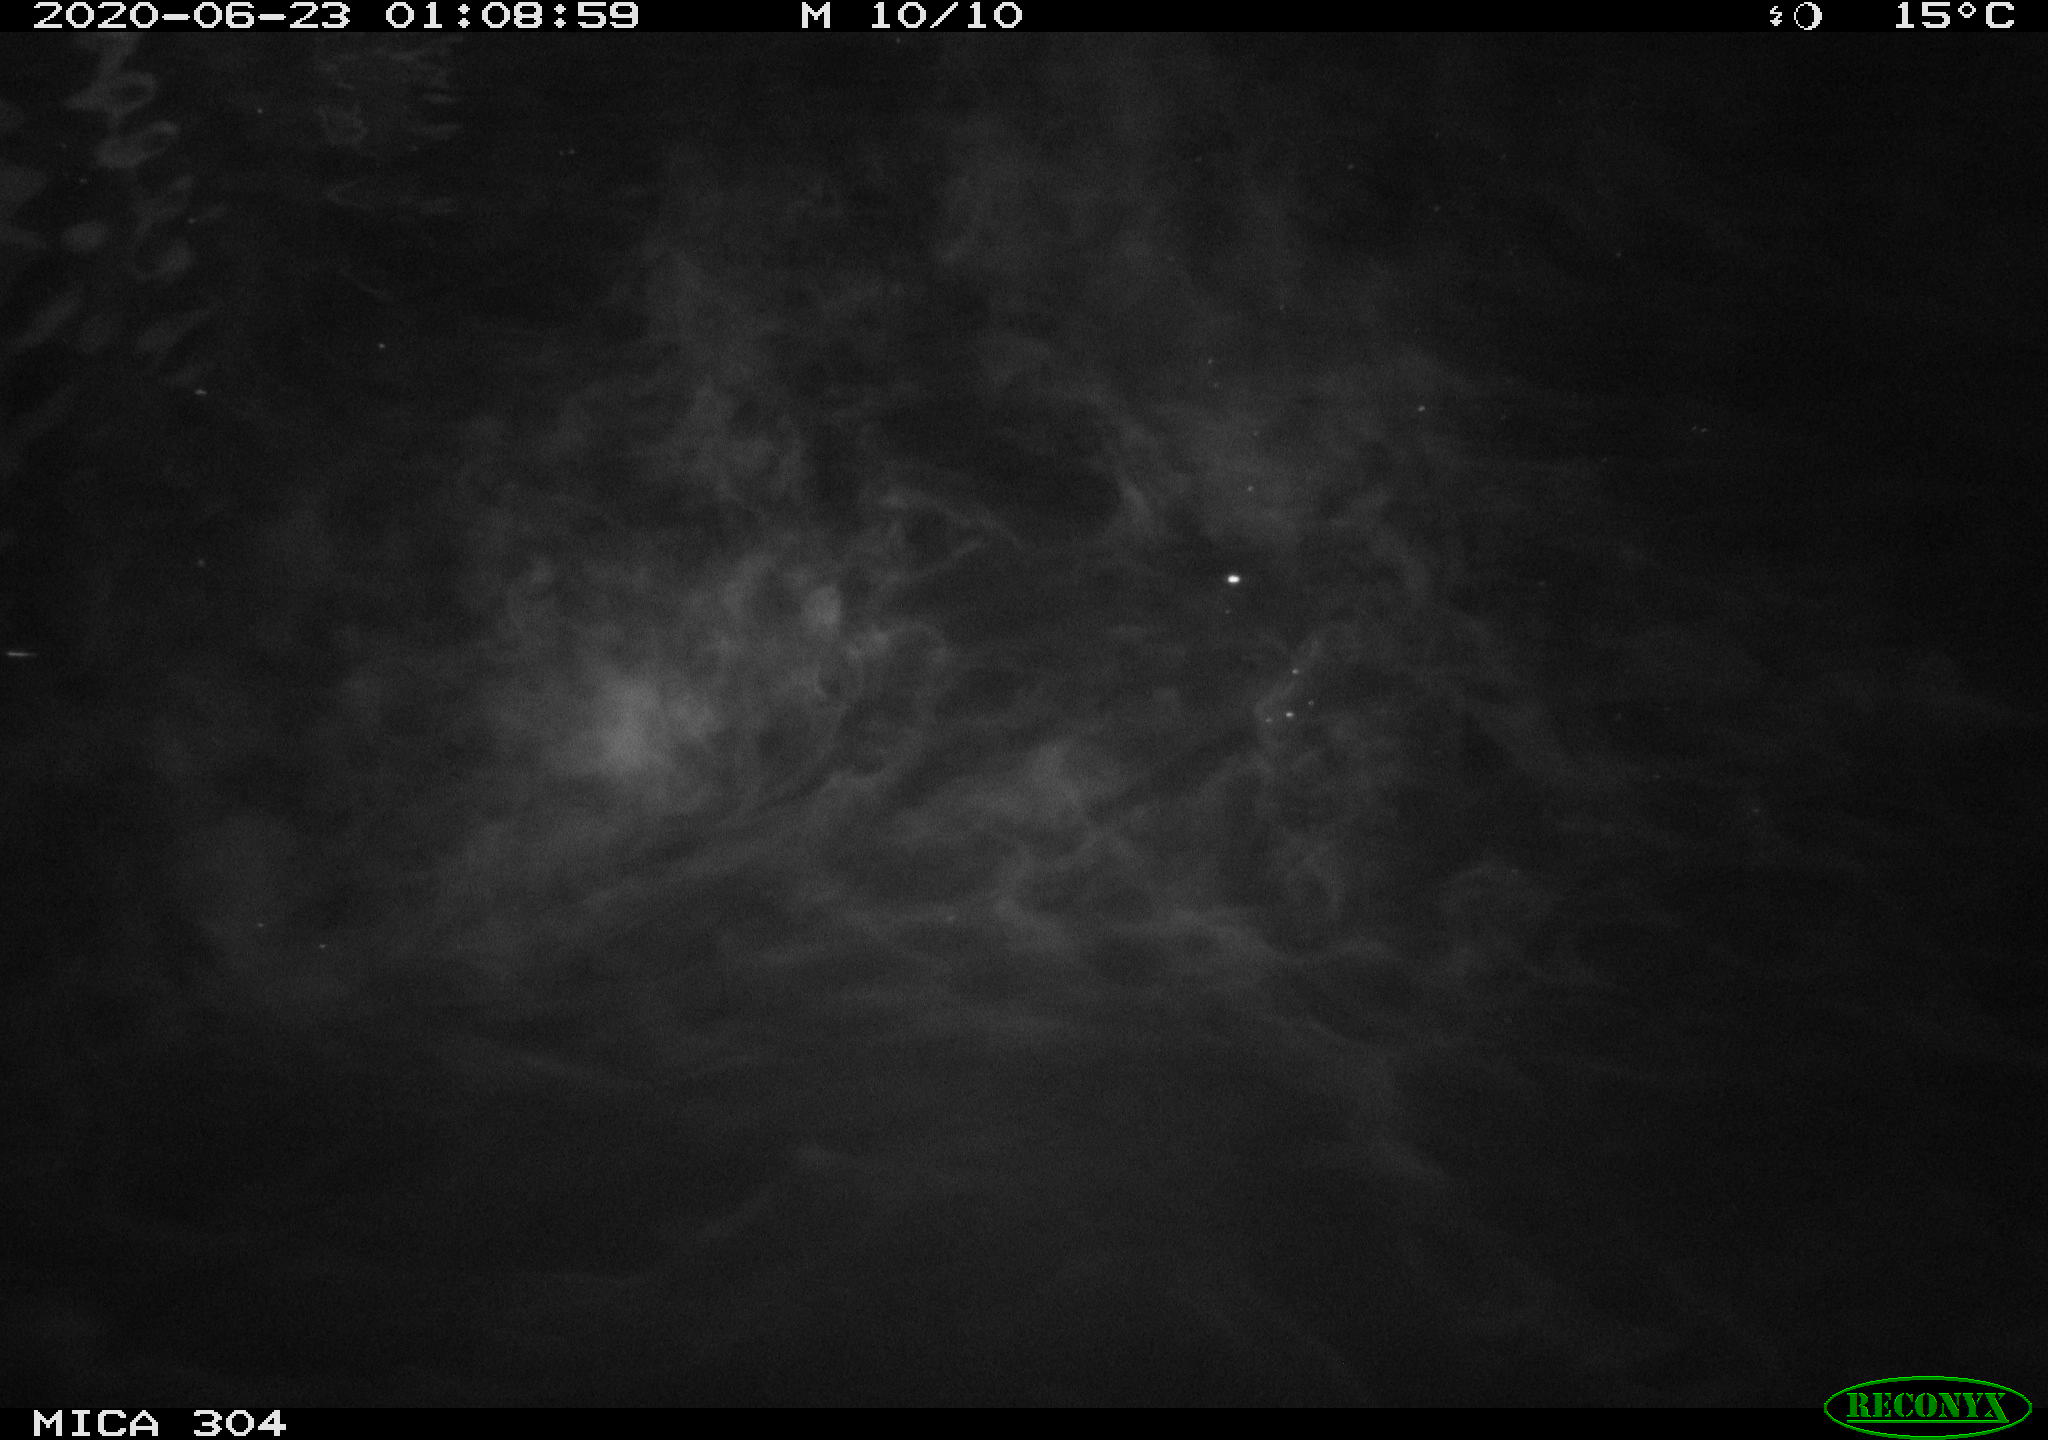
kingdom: Animalia
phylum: Chordata
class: Mammalia
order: Rodentia
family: Cricetidae
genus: Ondatra
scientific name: Ondatra zibethicus
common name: Muskrat
